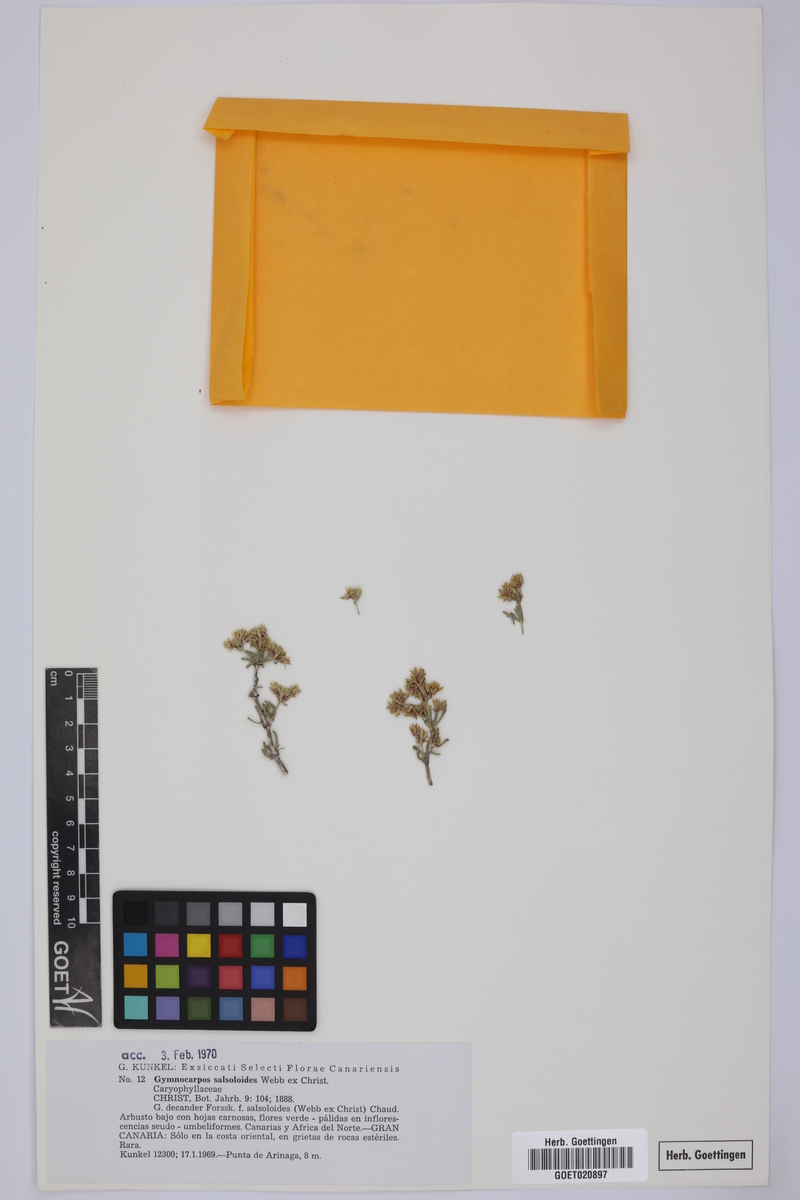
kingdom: Plantae
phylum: Tracheophyta
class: Magnoliopsida
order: Caryophyllales
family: Caryophyllaceae
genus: Gymnocarpos
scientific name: Gymnocarpos decander
